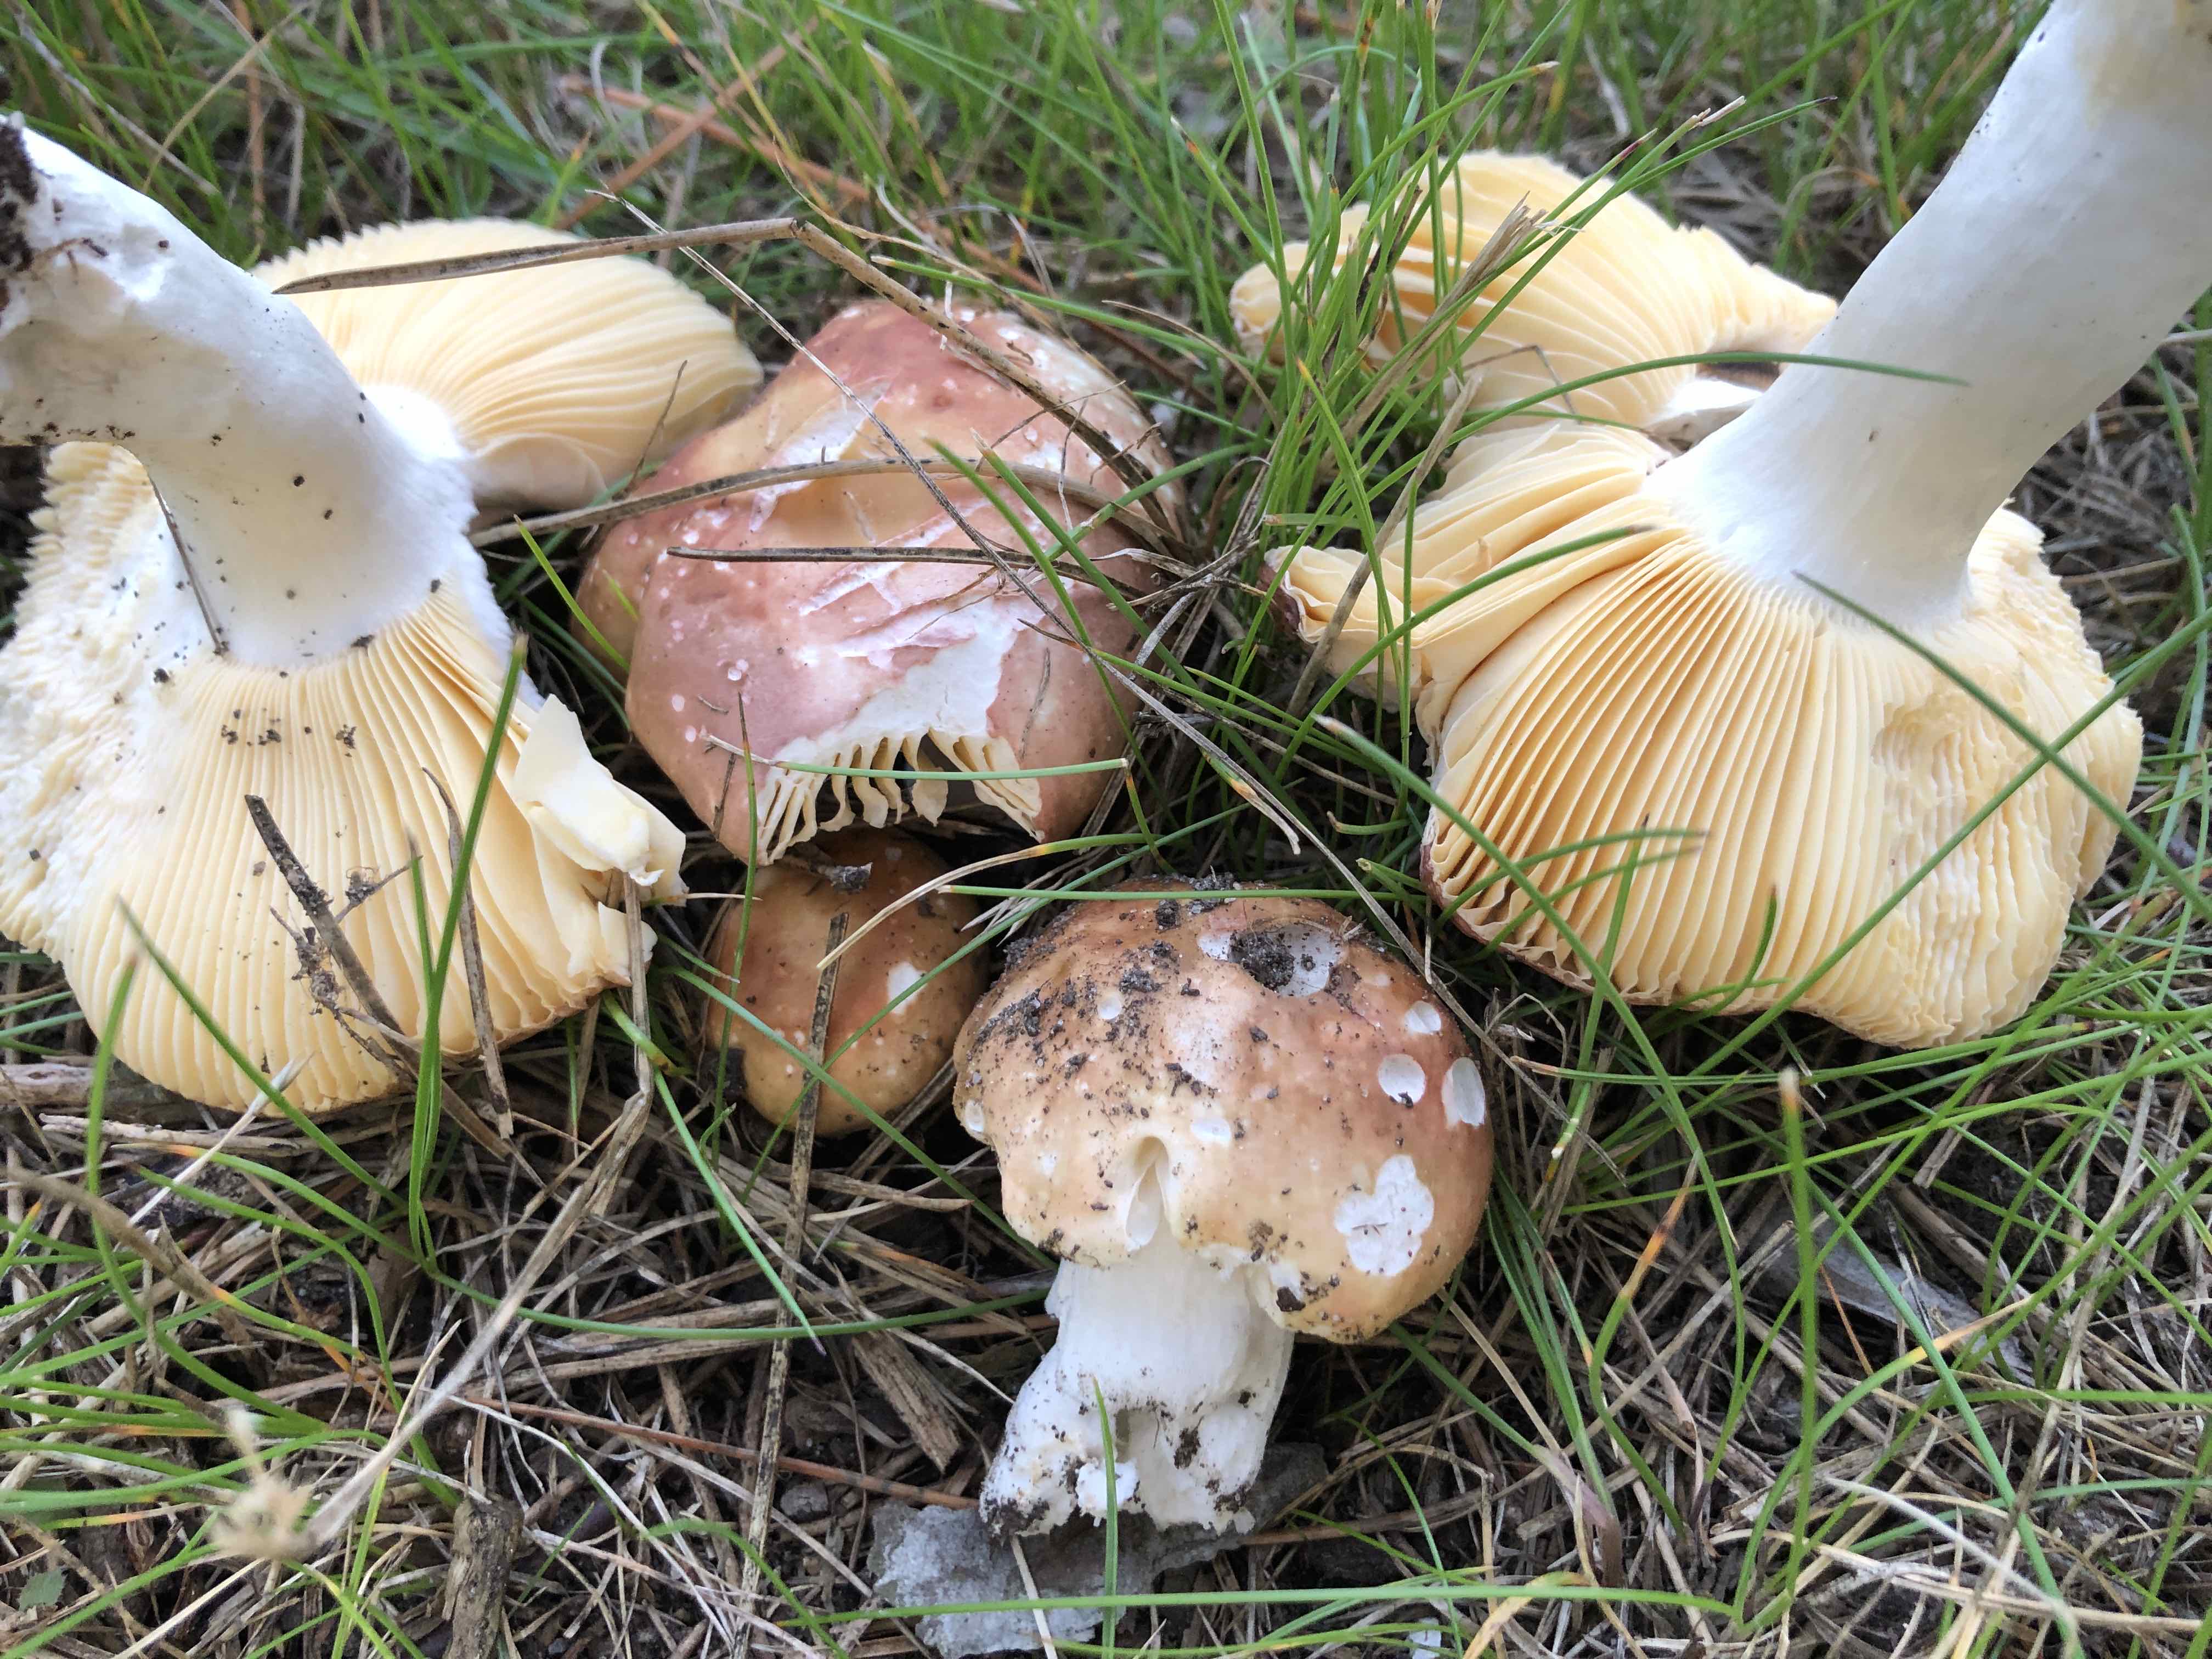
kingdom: Fungi
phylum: Basidiomycota
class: Agaricomycetes
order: Russulales
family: Russulaceae
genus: Russula
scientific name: Russula cessans
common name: fyrre-skørhat
